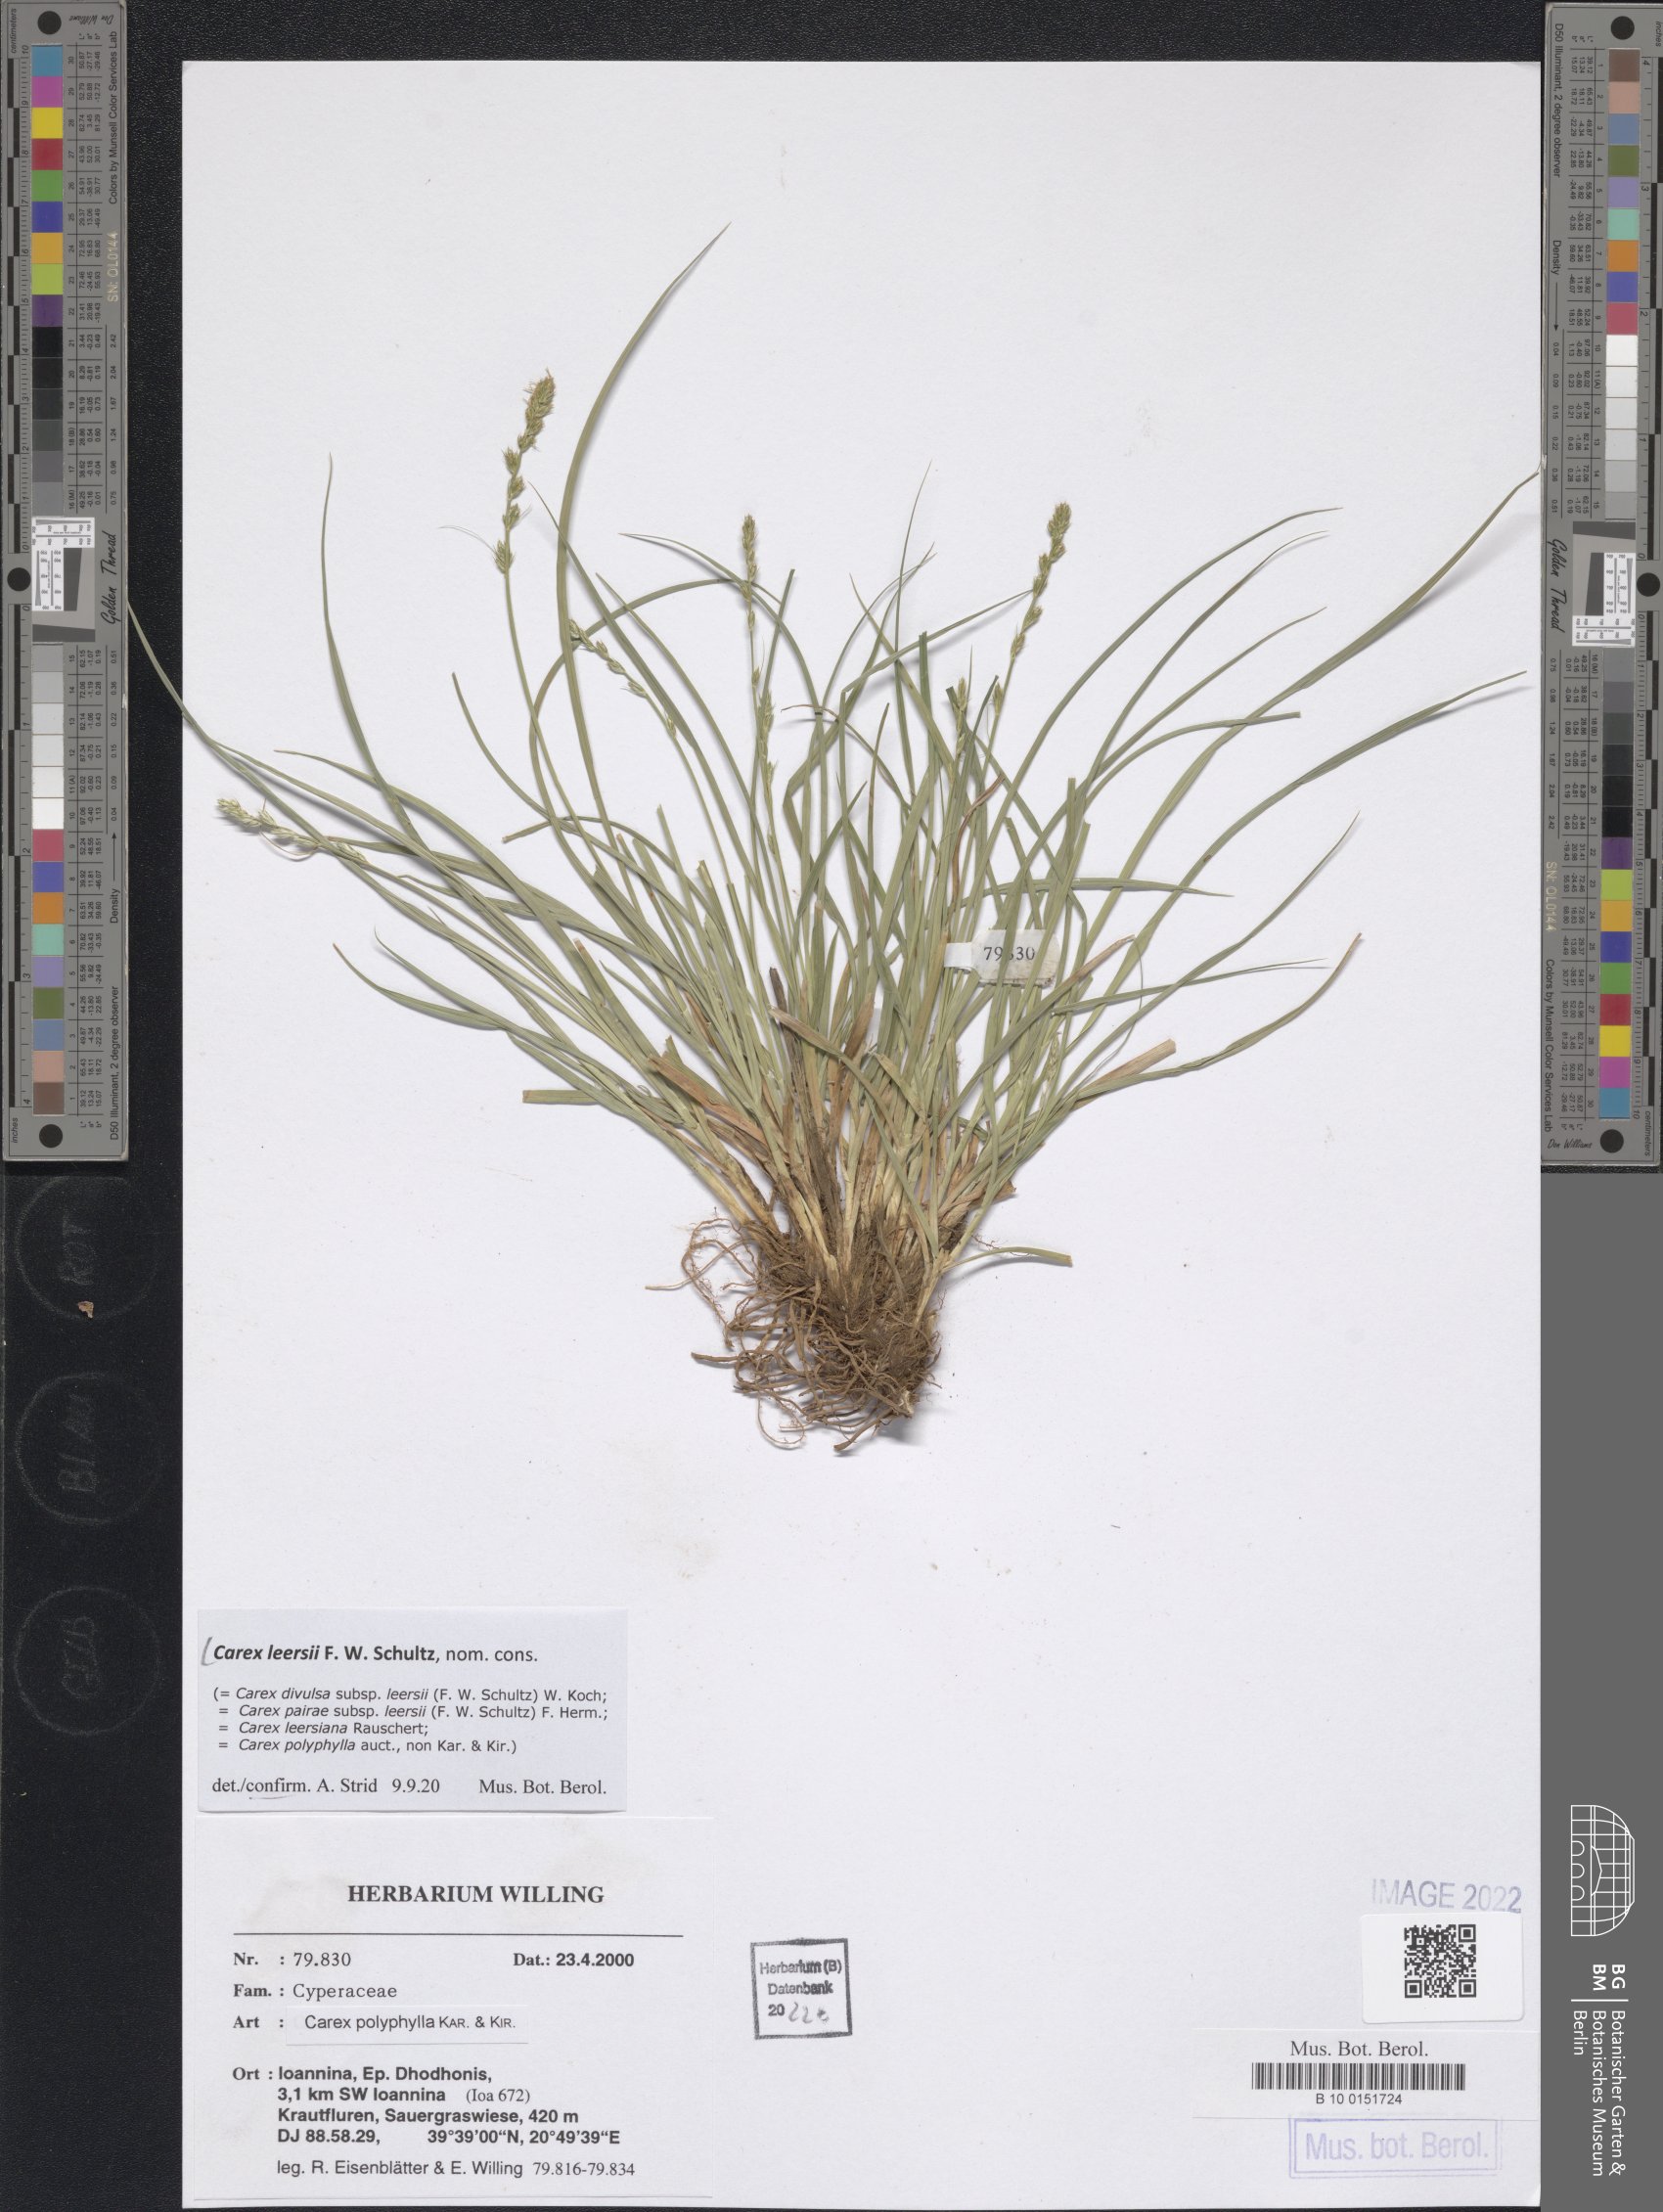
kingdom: Plantae
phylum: Tracheophyta
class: Liliopsida
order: Poales
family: Cyperaceae
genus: Carex
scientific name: Carex leersii
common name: Leers' sedge
